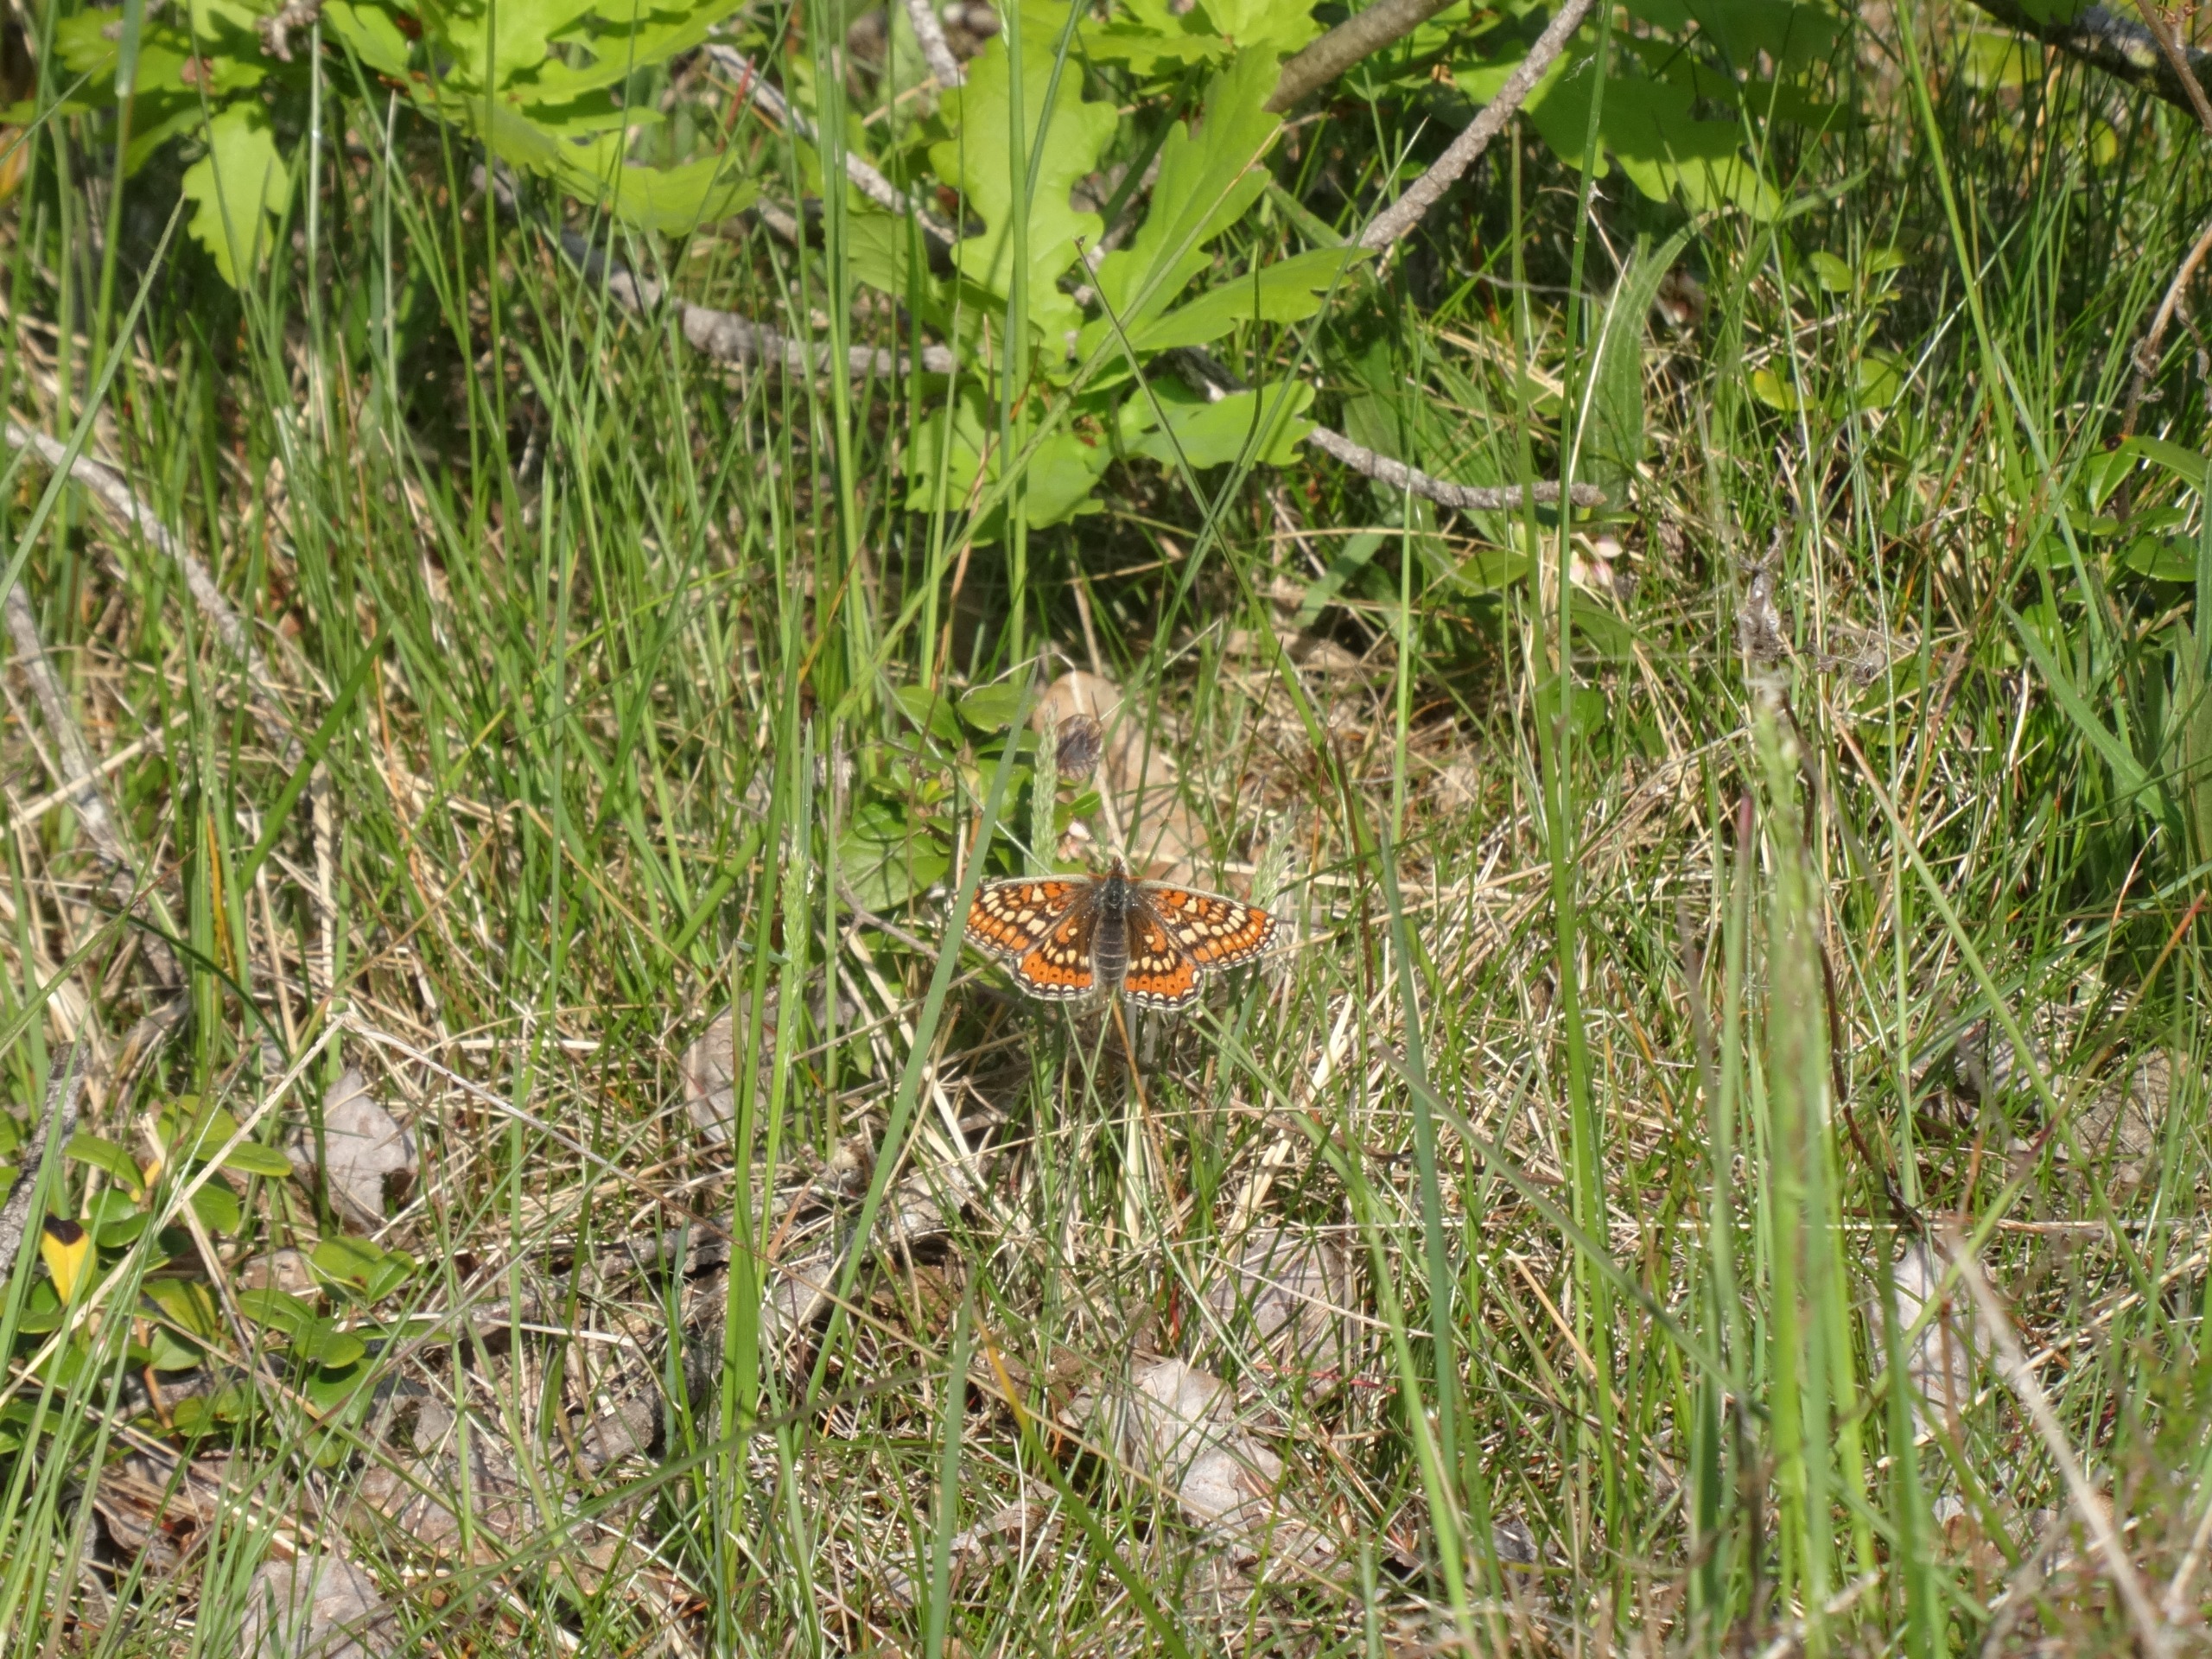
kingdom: Animalia
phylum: Arthropoda
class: Insecta
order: Lepidoptera
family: Nymphalidae
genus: Euphydryas
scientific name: Euphydryas aurinia
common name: Hedepletvinge
